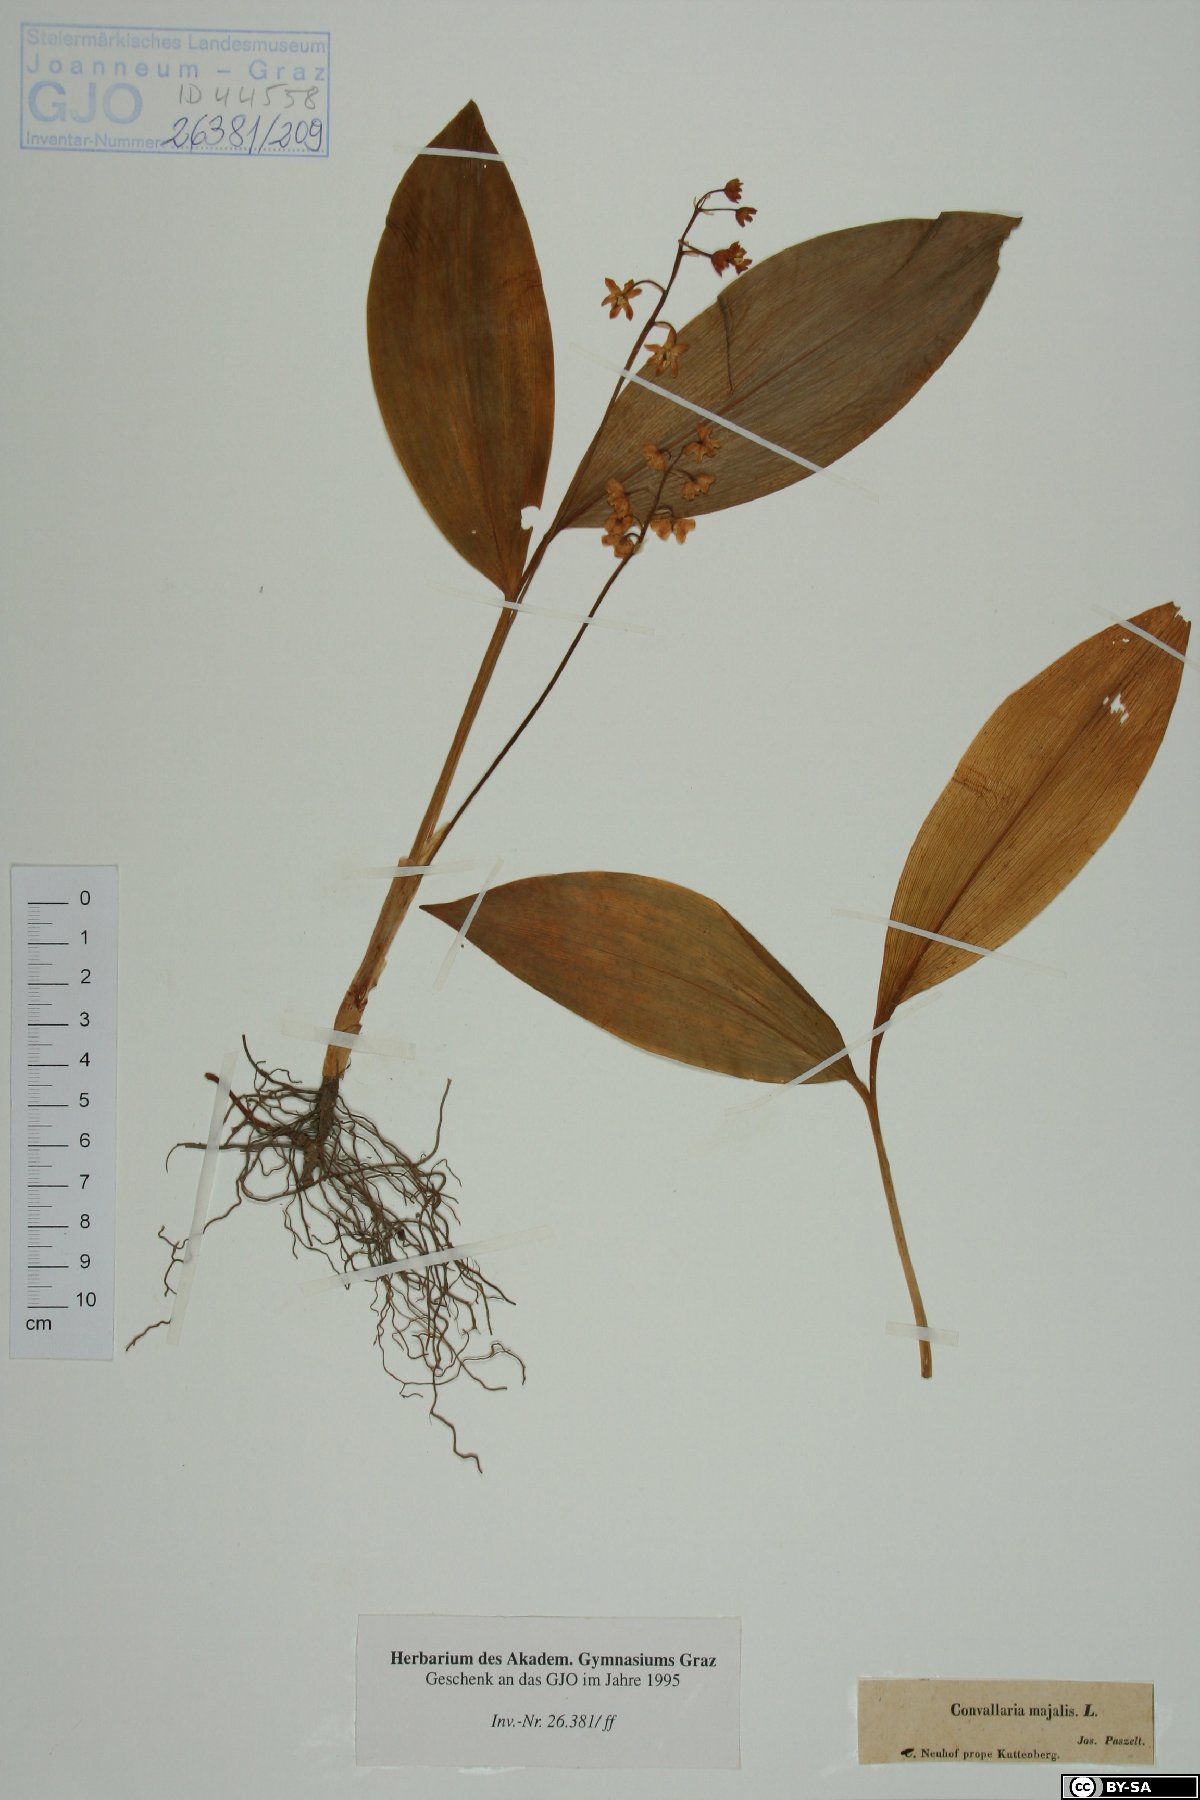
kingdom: Plantae
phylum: Tracheophyta
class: Liliopsida
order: Asparagales
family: Asparagaceae
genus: Convallaria
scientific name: Convallaria majalis
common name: Lily-of-the-valley
